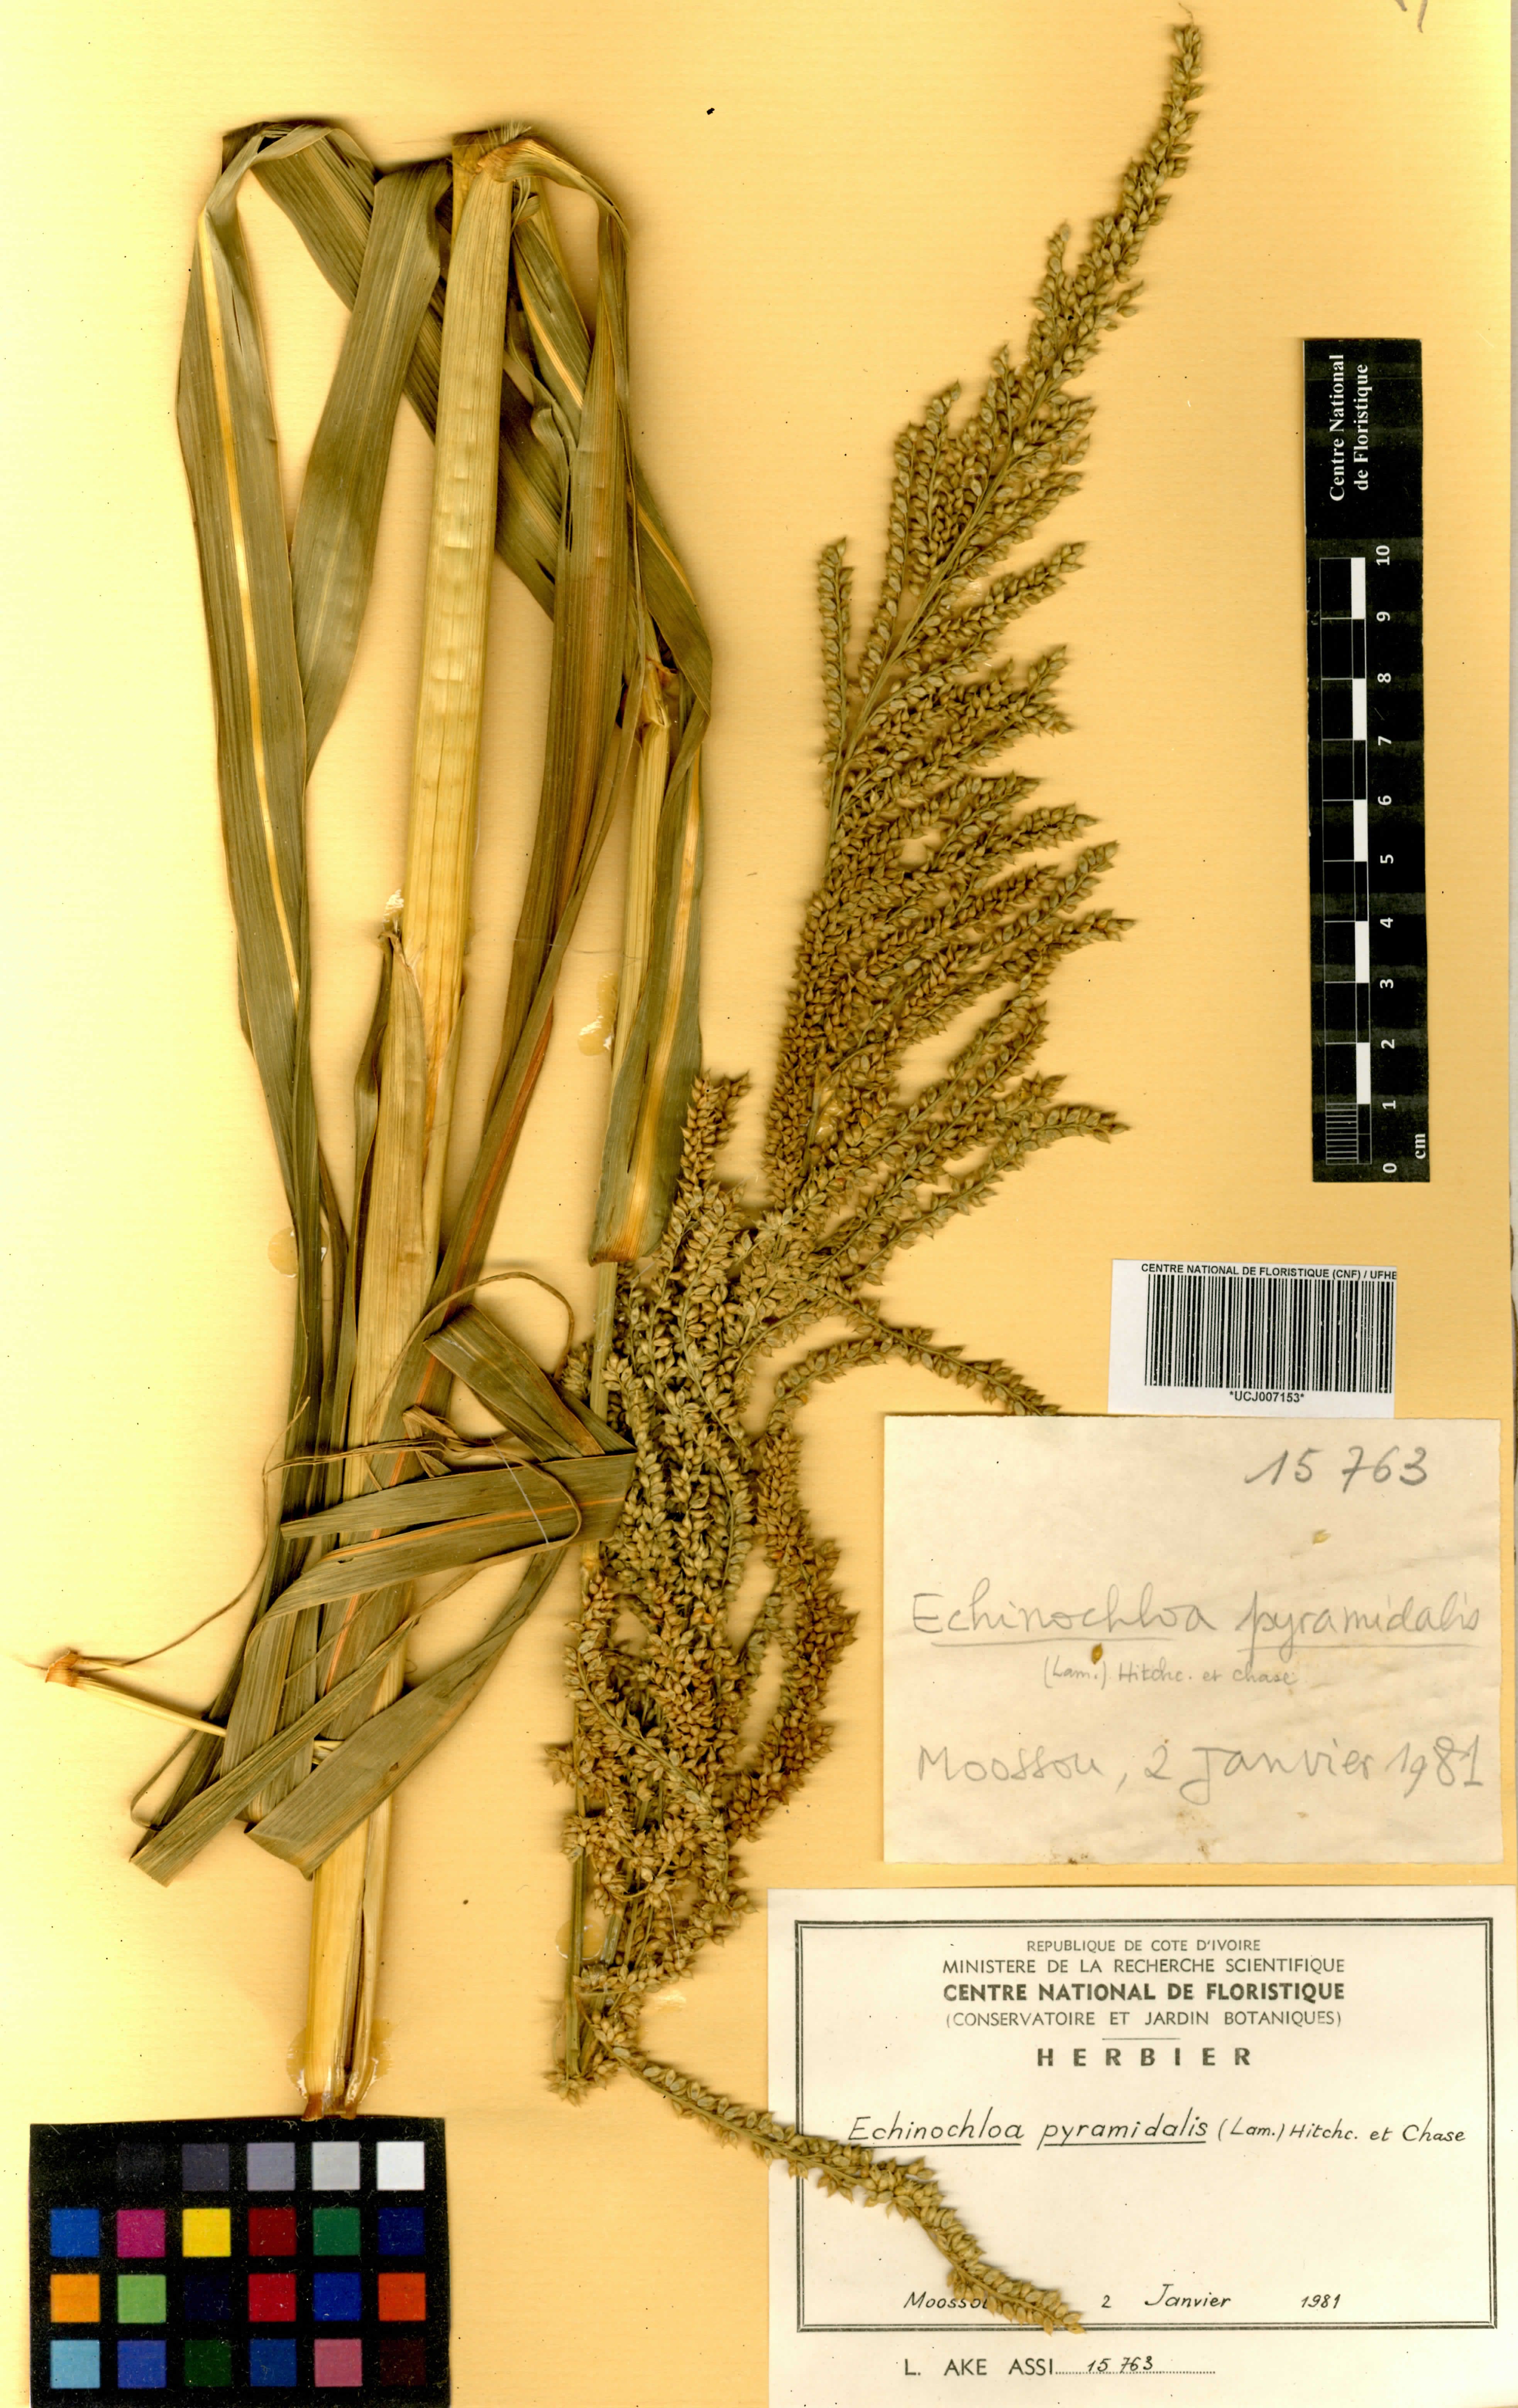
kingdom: Plantae
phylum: Tracheophyta
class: Liliopsida
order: Poales
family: Poaceae
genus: Echinochloa
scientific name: Echinochloa pyramidalis
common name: Antelope grass
